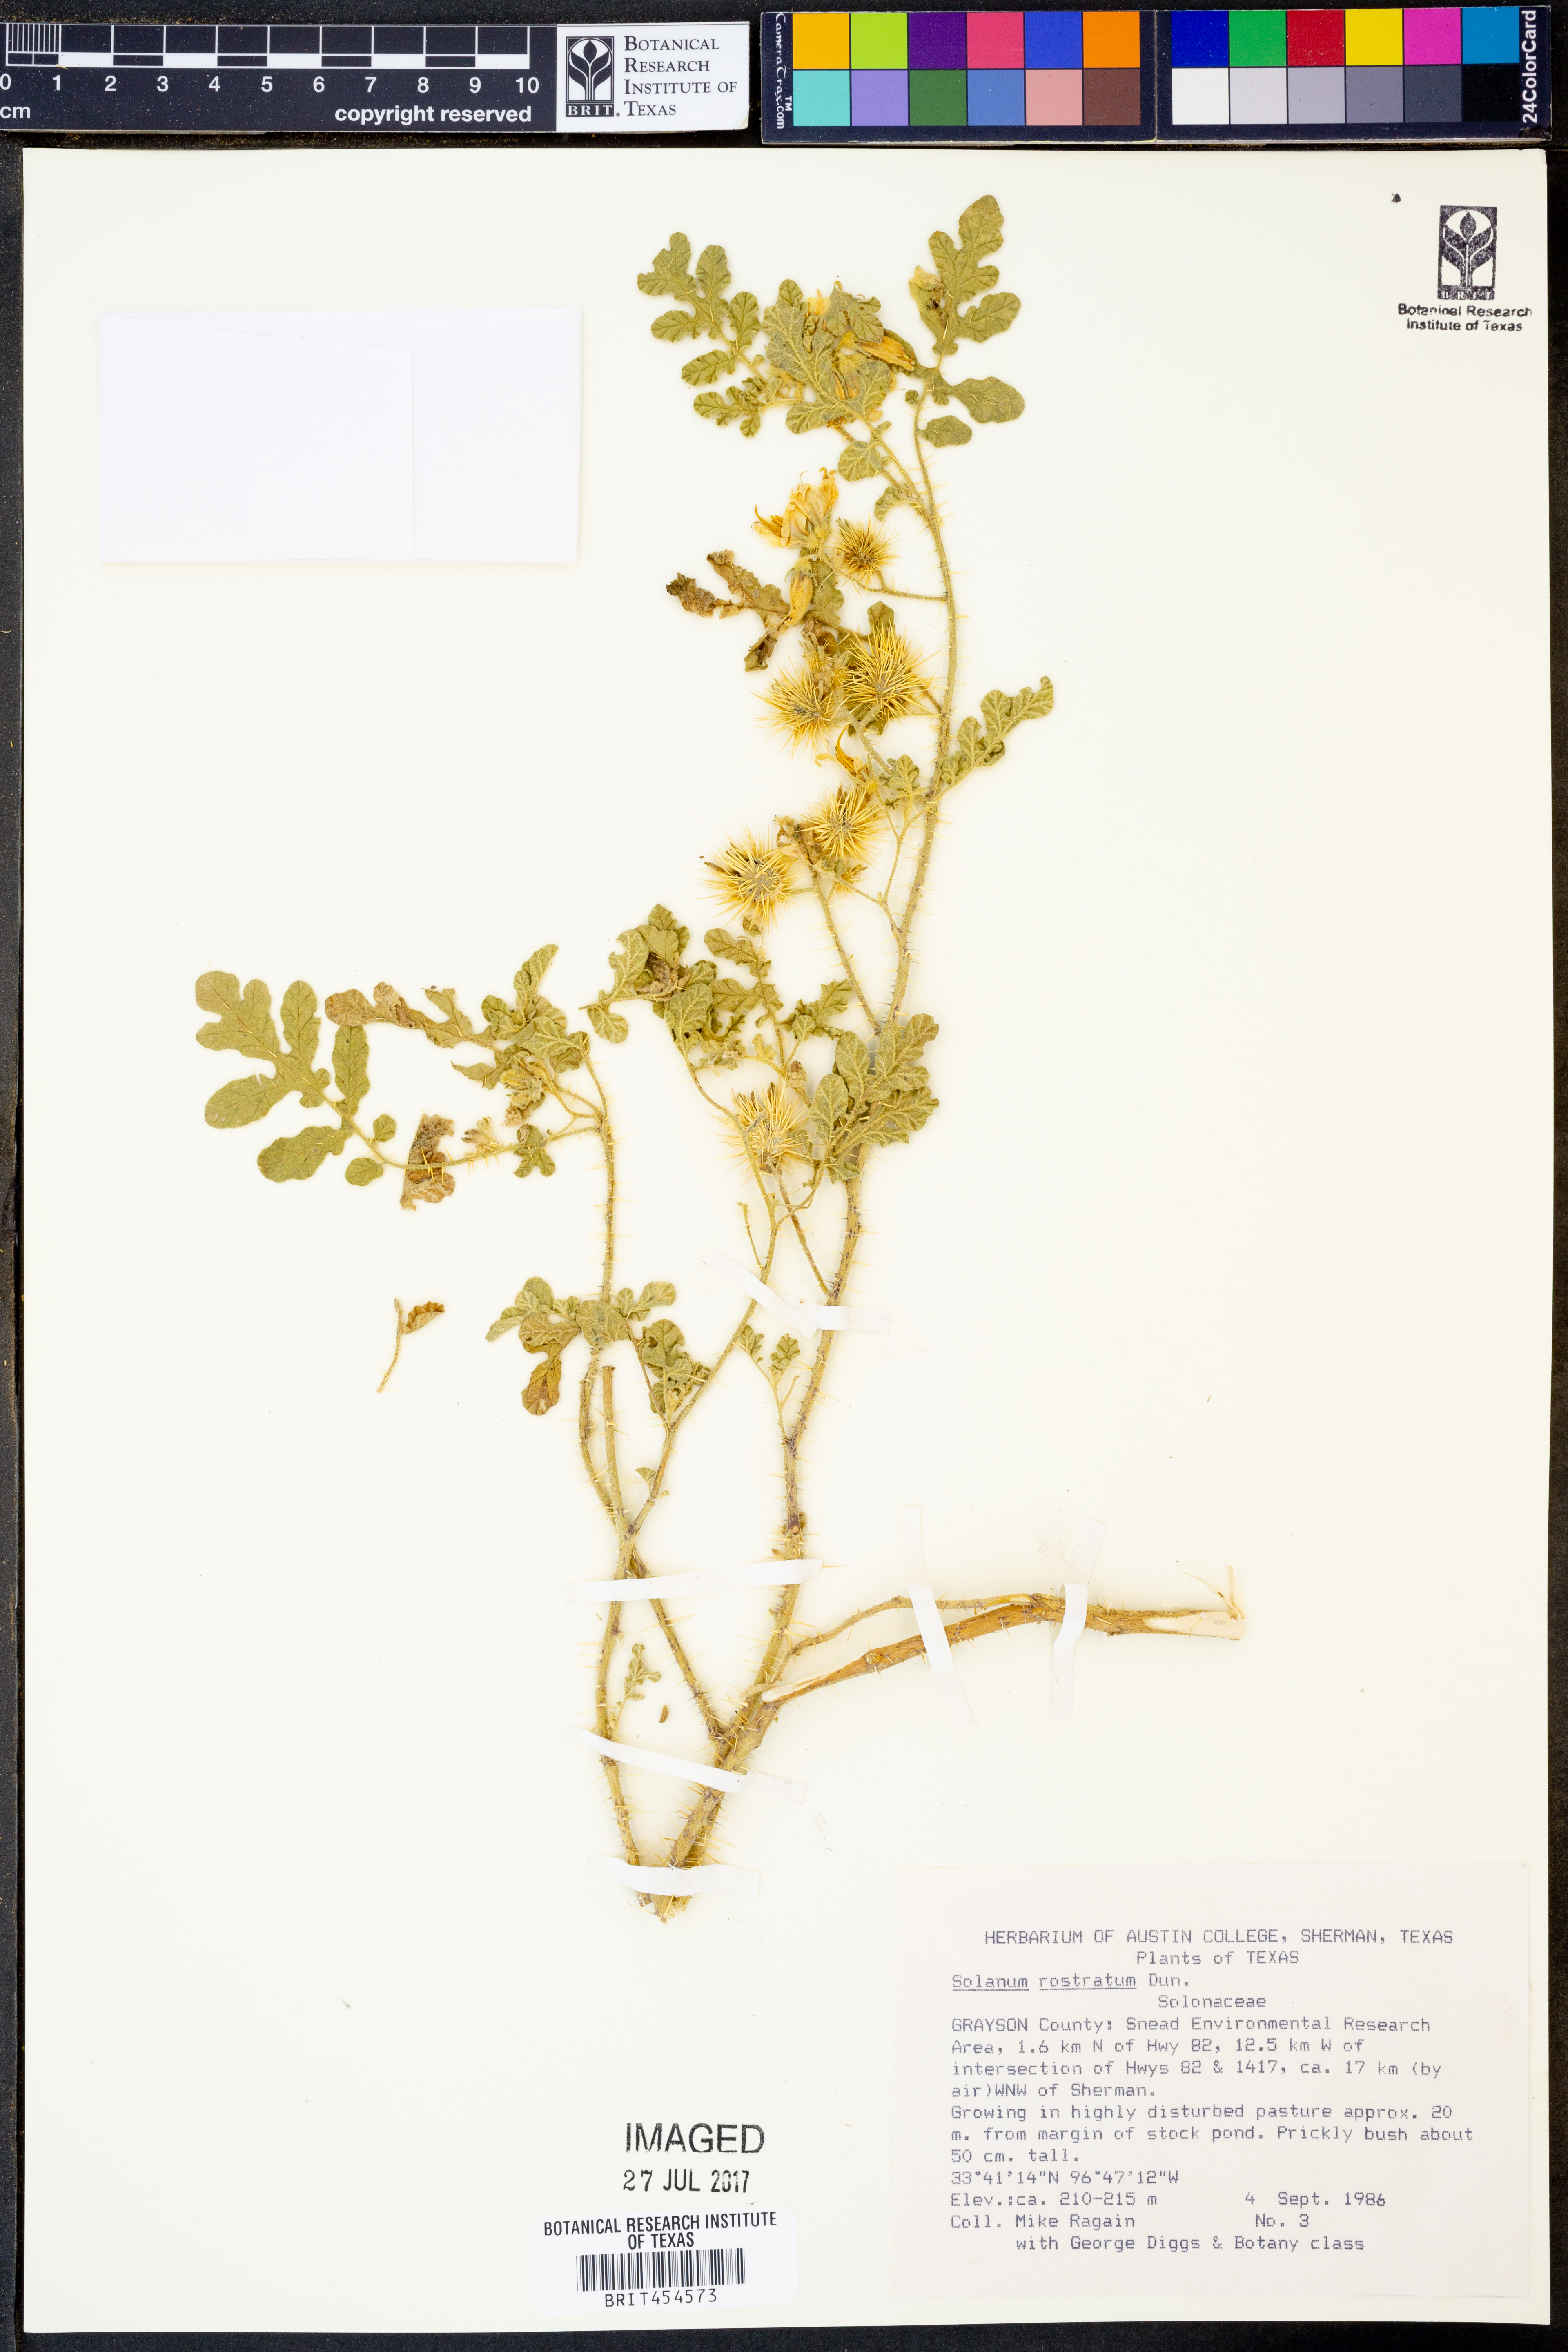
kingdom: Plantae
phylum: Tracheophyta
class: Magnoliopsida
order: Solanales
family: Solanaceae
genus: Solanum
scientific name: Solanum angustifolium
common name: Buffalobur nightshade
